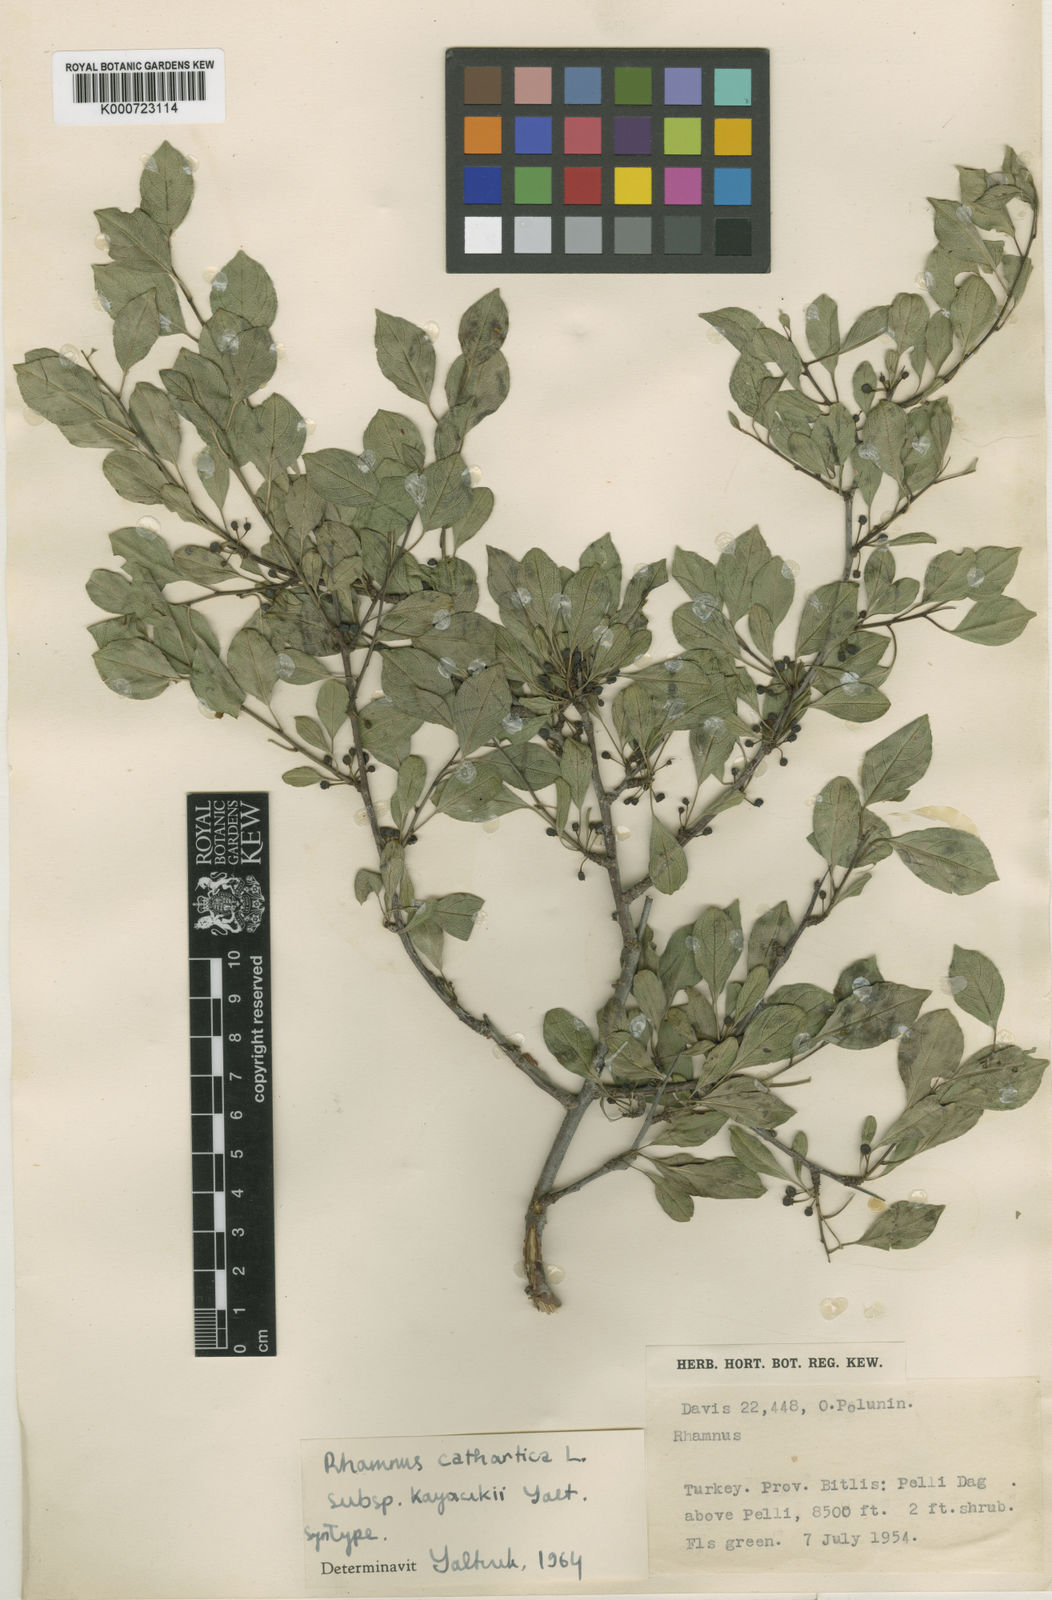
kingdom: Plantae
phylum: Tracheophyta
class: Magnoliopsida
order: Rosales
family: Rhamnaceae
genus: Rhamnus
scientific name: Rhamnus cathartica
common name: Common buckthorn
